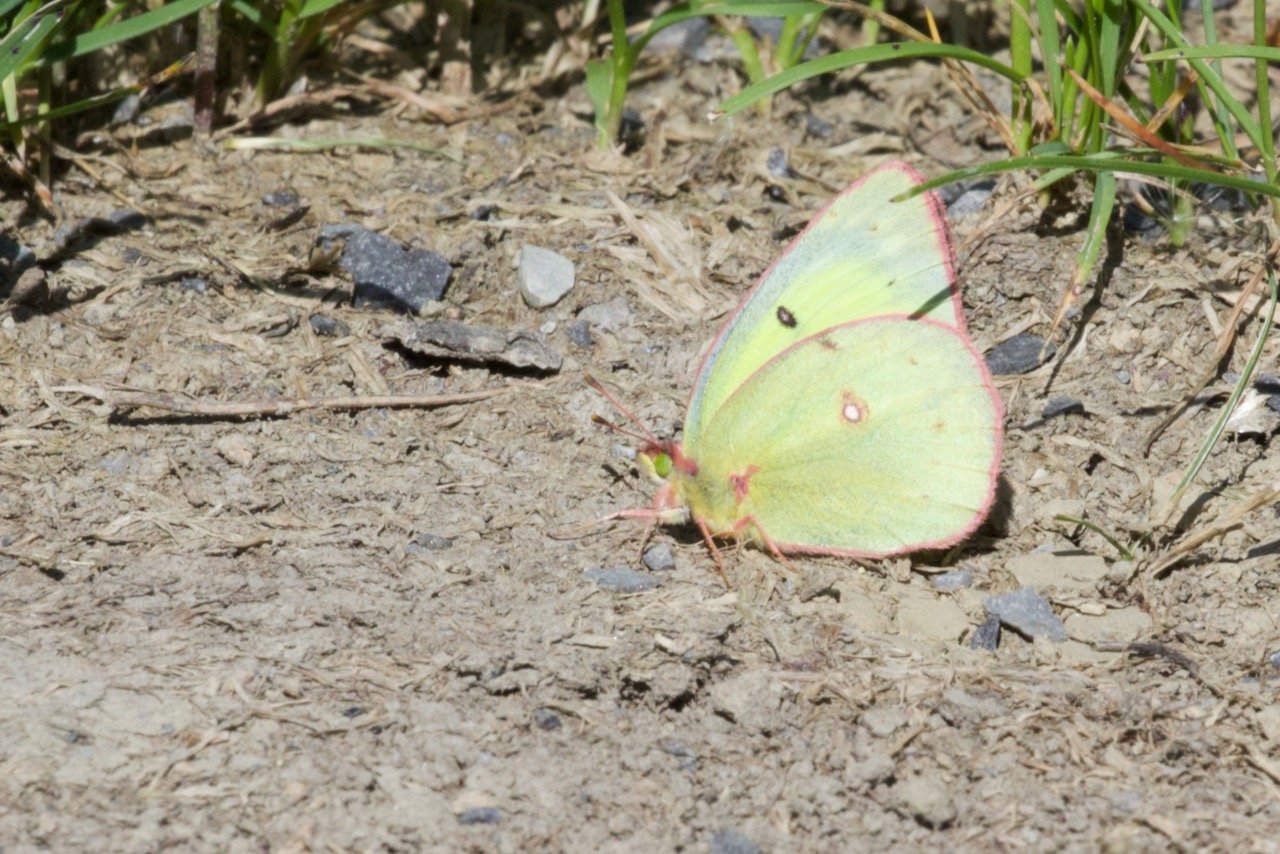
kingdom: Animalia
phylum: Arthropoda
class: Insecta
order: Lepidoptera
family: Pieridae
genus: Colias
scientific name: Colias interior
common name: Pink-edged Sulphur
